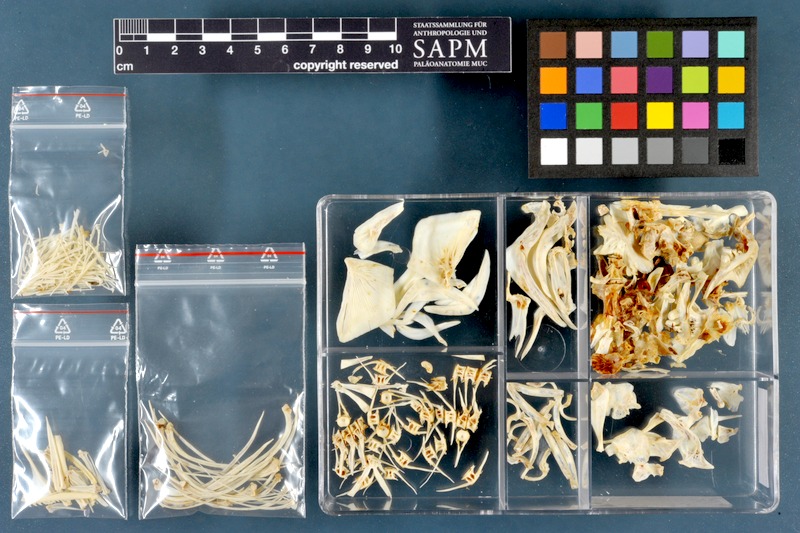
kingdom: Animalia
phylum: Chordata
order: Cypriniformes
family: Cyprinidae
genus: Cyprinus
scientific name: Cyprinus carpio
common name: Common carp
